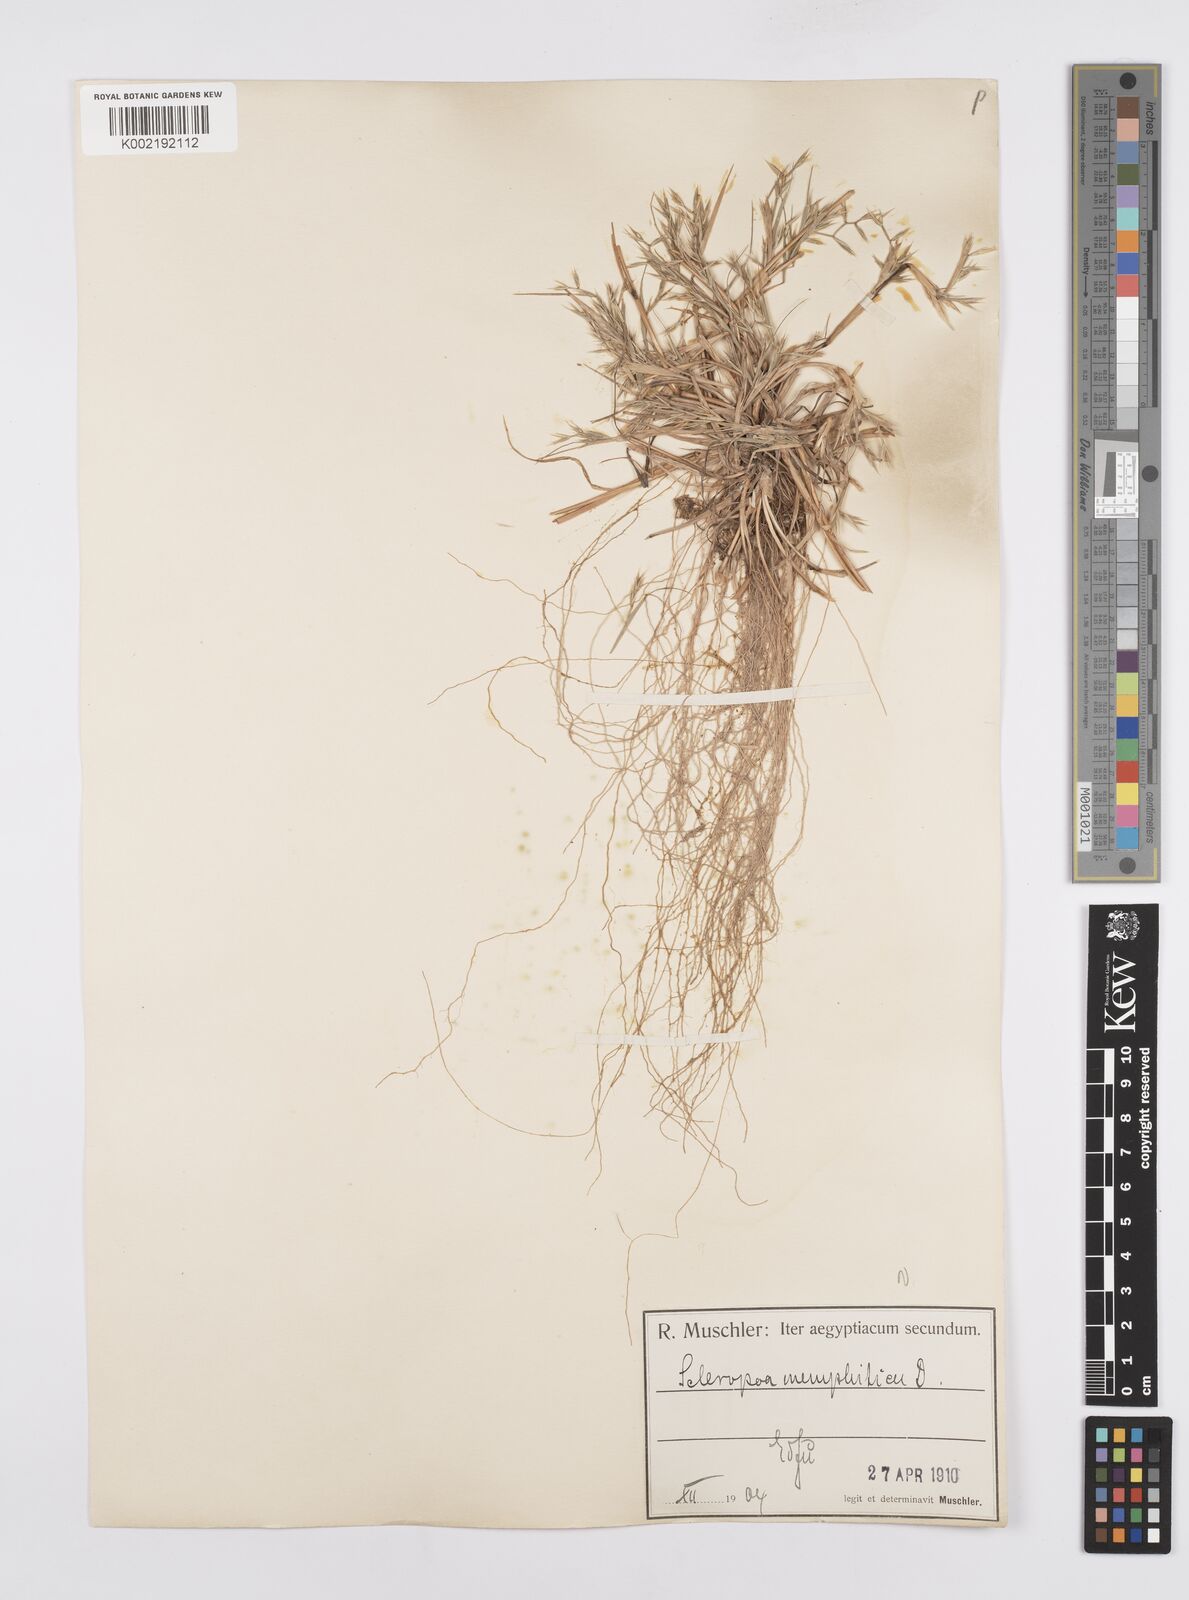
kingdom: Plantae
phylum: Tracheophyta
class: Liliopsida
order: Poales
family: Poaceae
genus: Cutandia
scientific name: Cutandia memphitica
